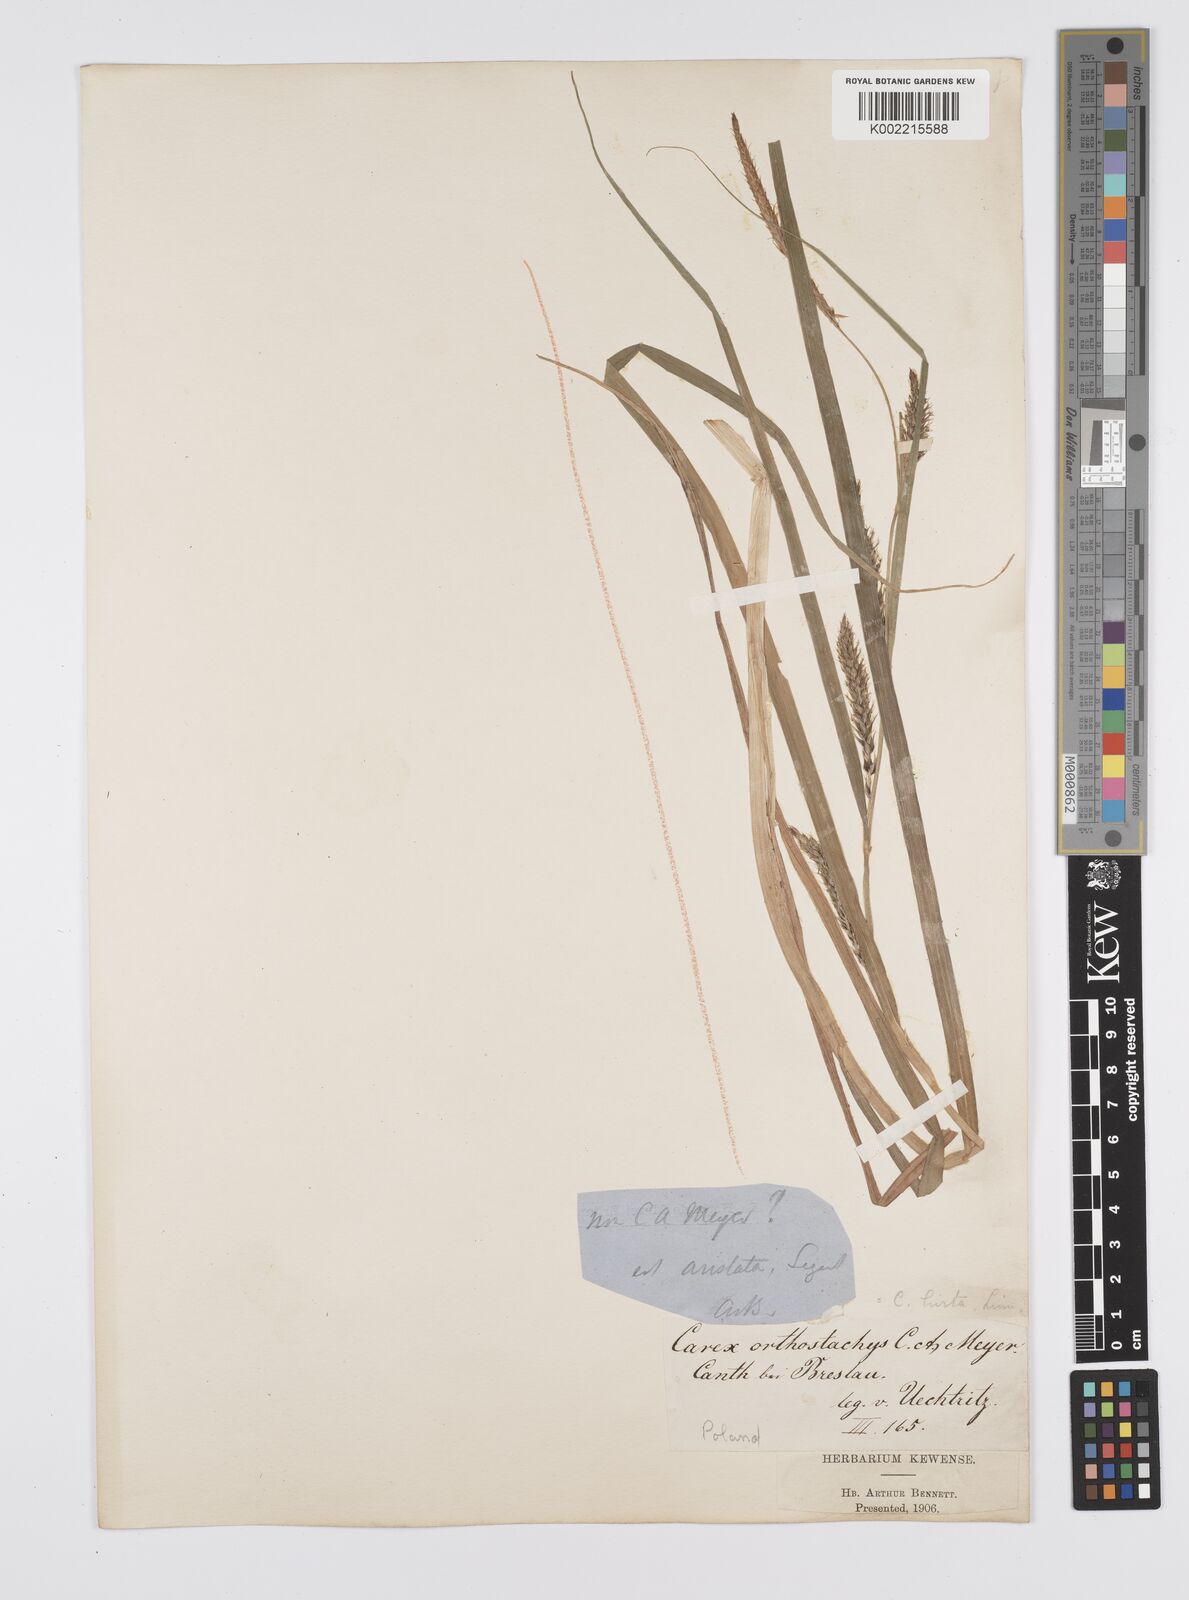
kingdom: Plantae
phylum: Tracheophyta
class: Liliopsida
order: Poales
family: Cyperaceae
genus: Carex
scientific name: Carex hirta
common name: Hairy sedge
